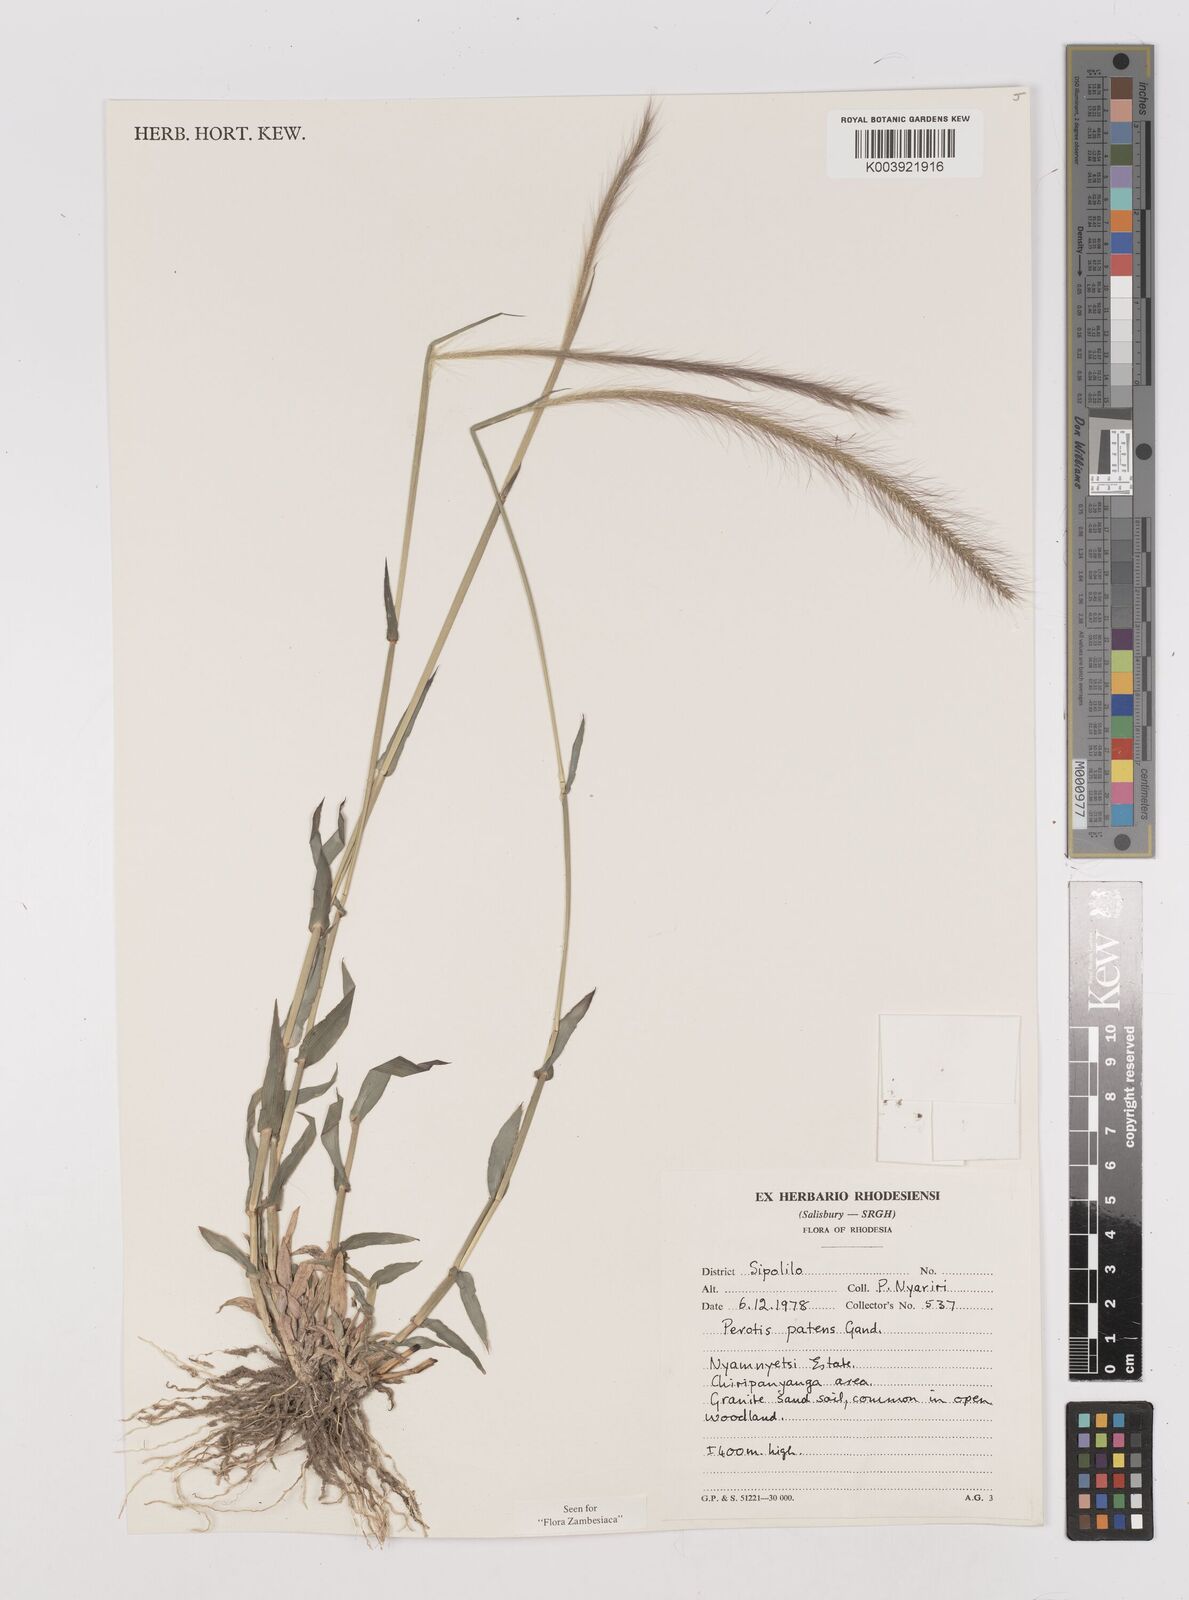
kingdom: Plantae
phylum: Tracheophyta
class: Liliopsida
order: Poales
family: Poaceae
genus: Perotis
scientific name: Perotis patens
